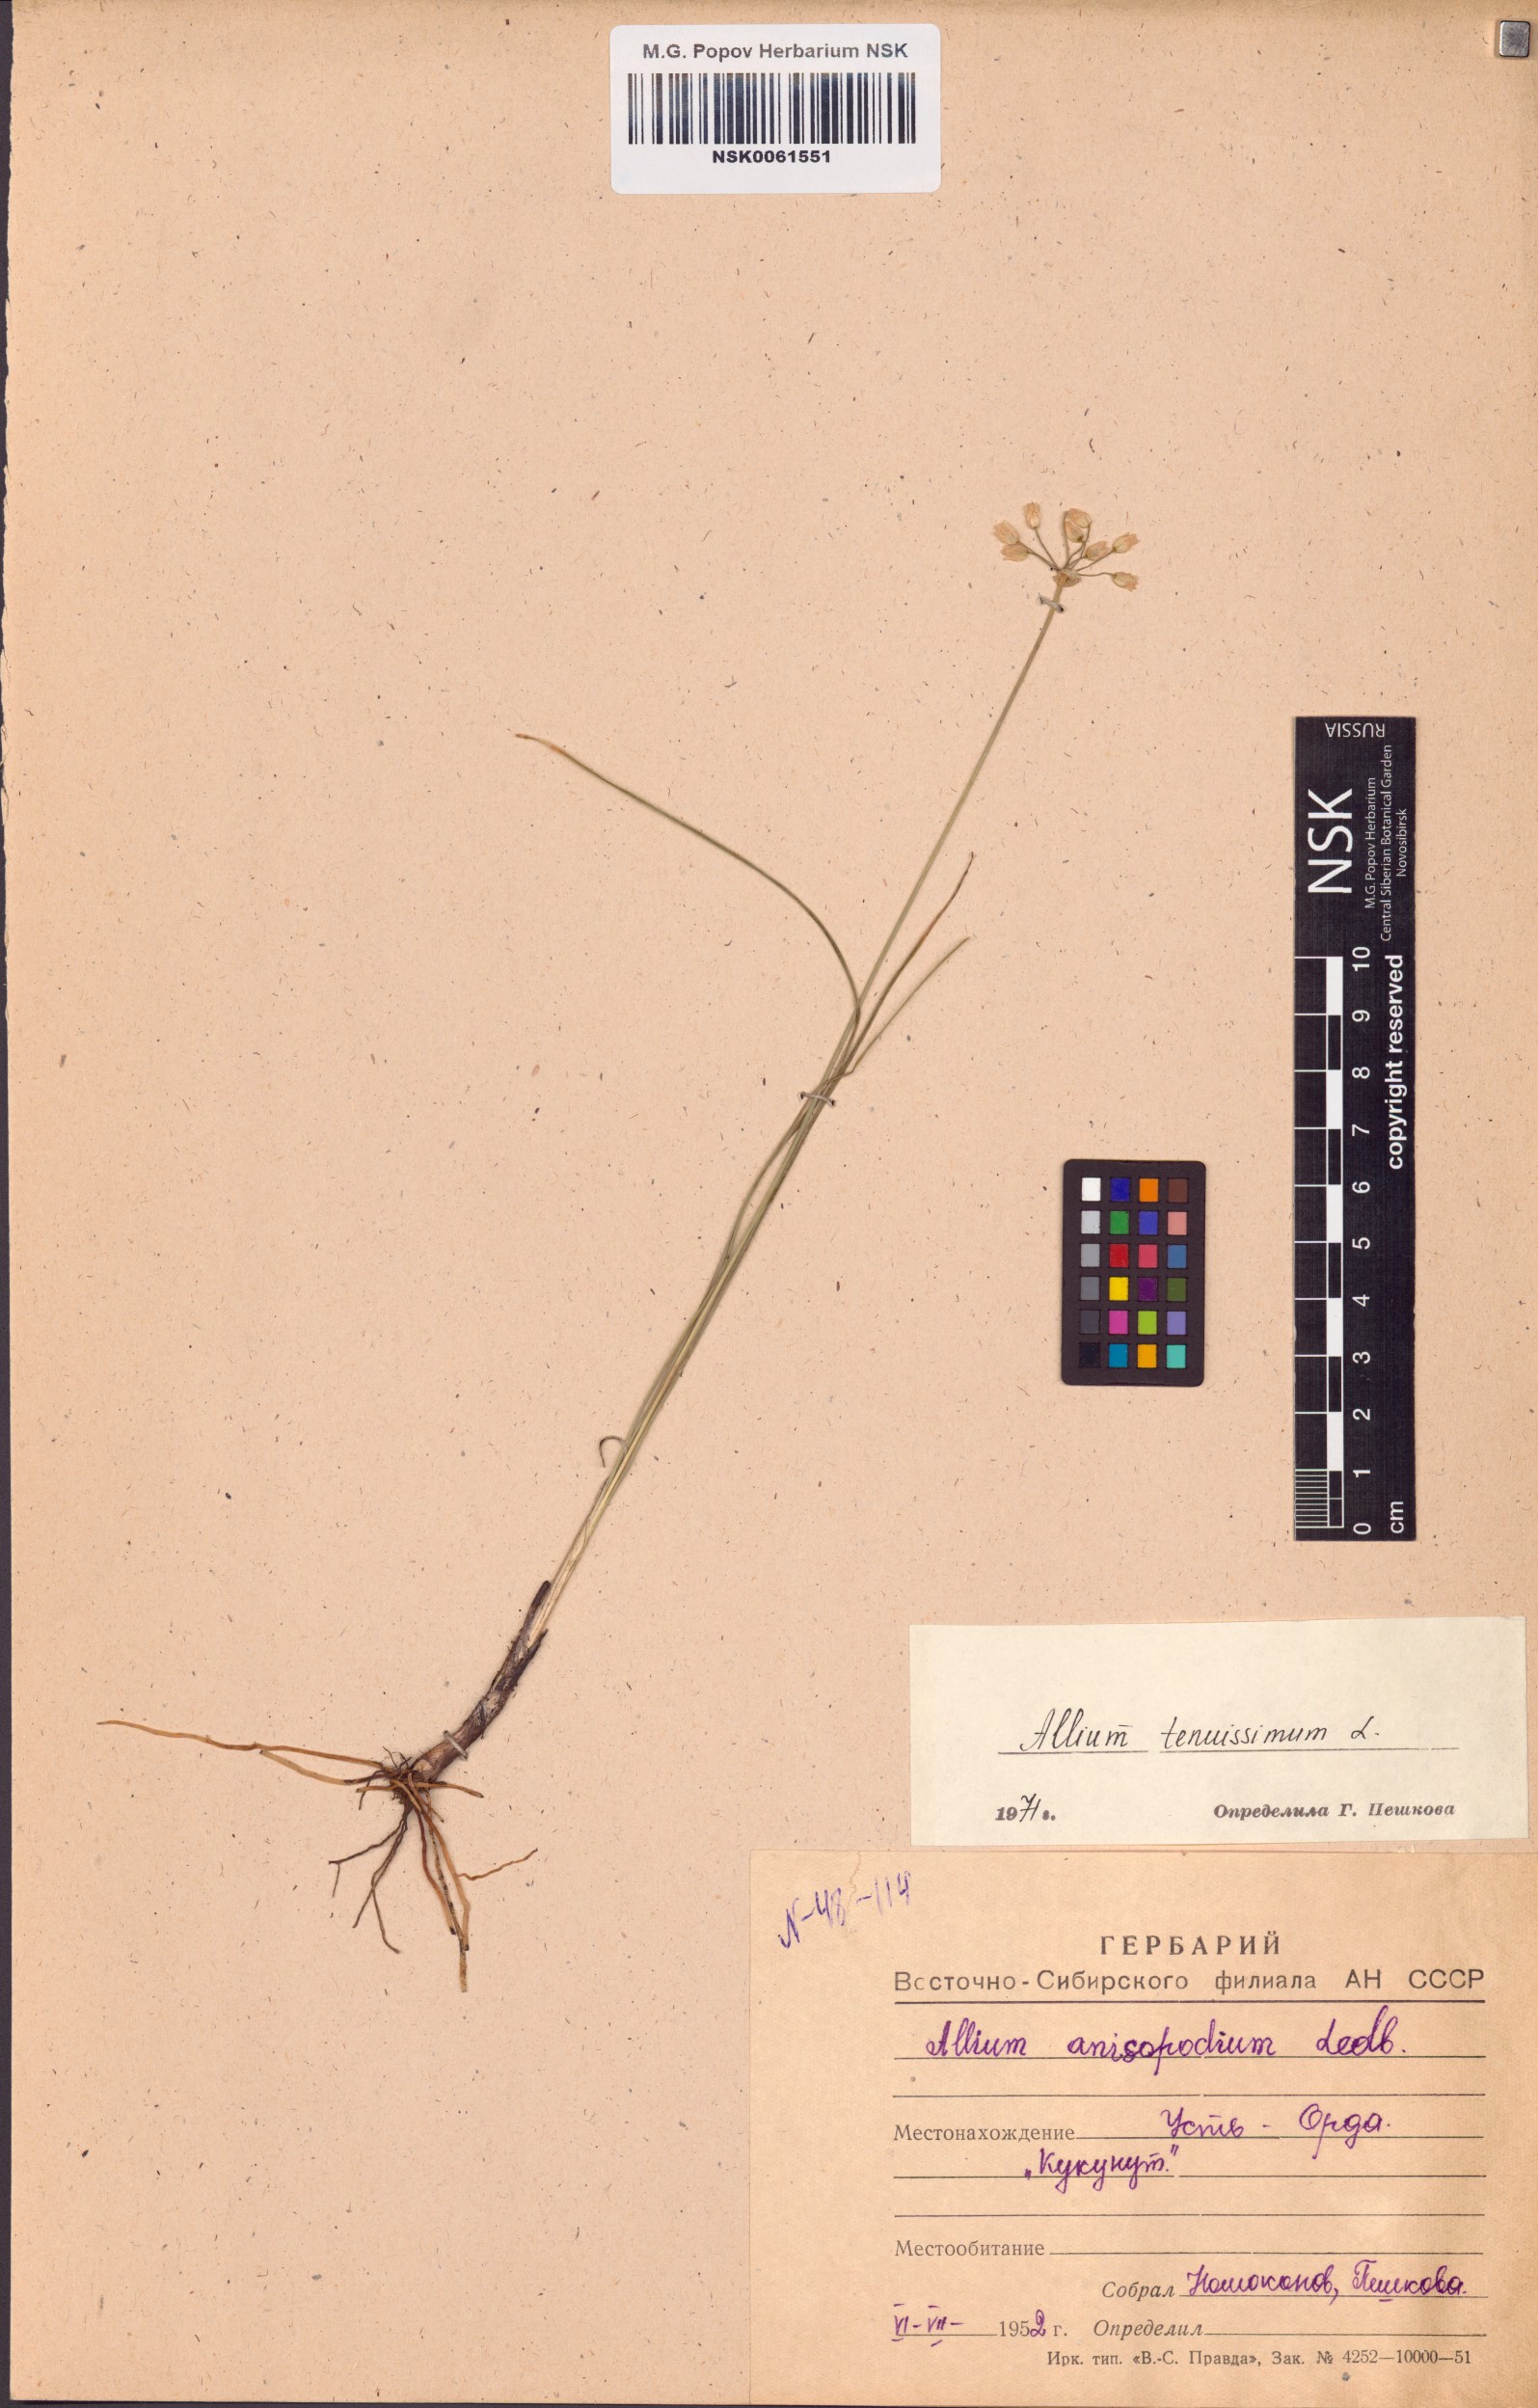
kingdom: Plantae
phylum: Tracheophyta
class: Liliopsida
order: Asparagales
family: Amaryllidaceae
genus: Allium
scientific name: Allium tenuissimum
